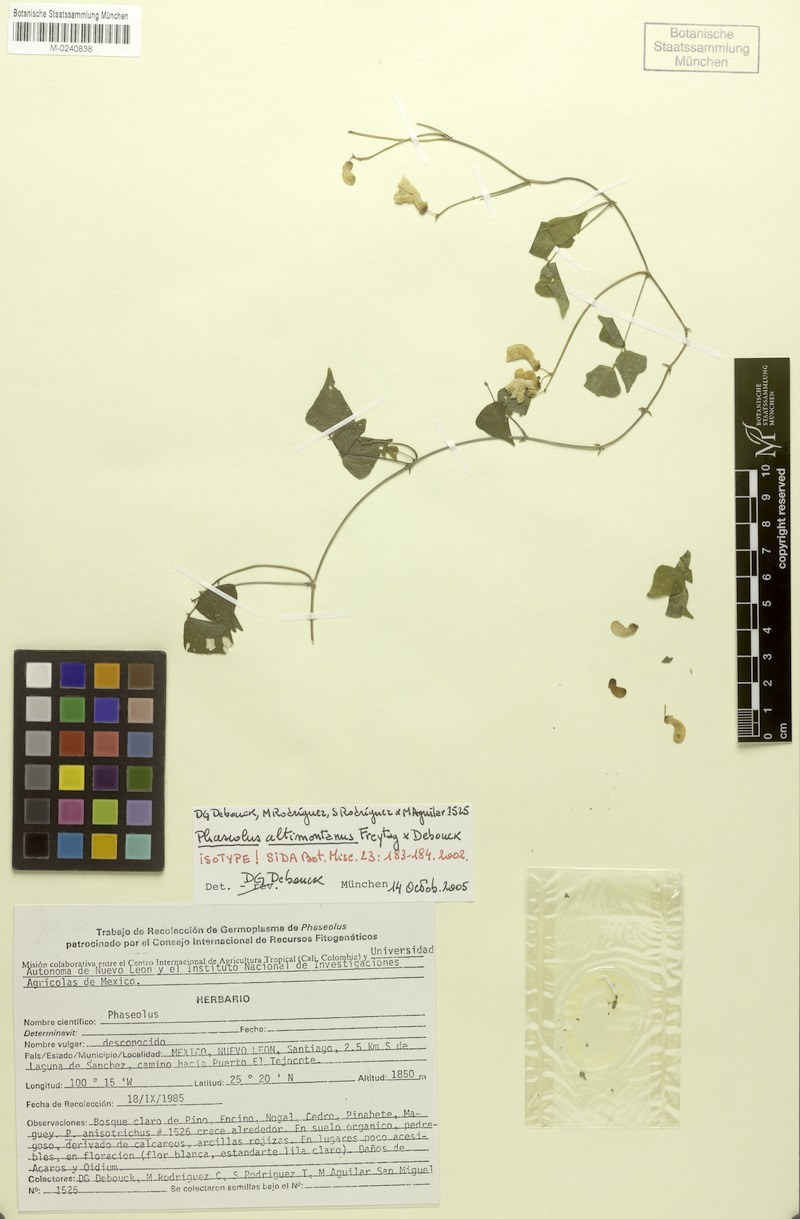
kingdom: Plantae
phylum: Tracheophyta
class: Magnoliopsida
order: Fabales
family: Fabaceae
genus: Phaseolus
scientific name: Phaseolus altimontanus
